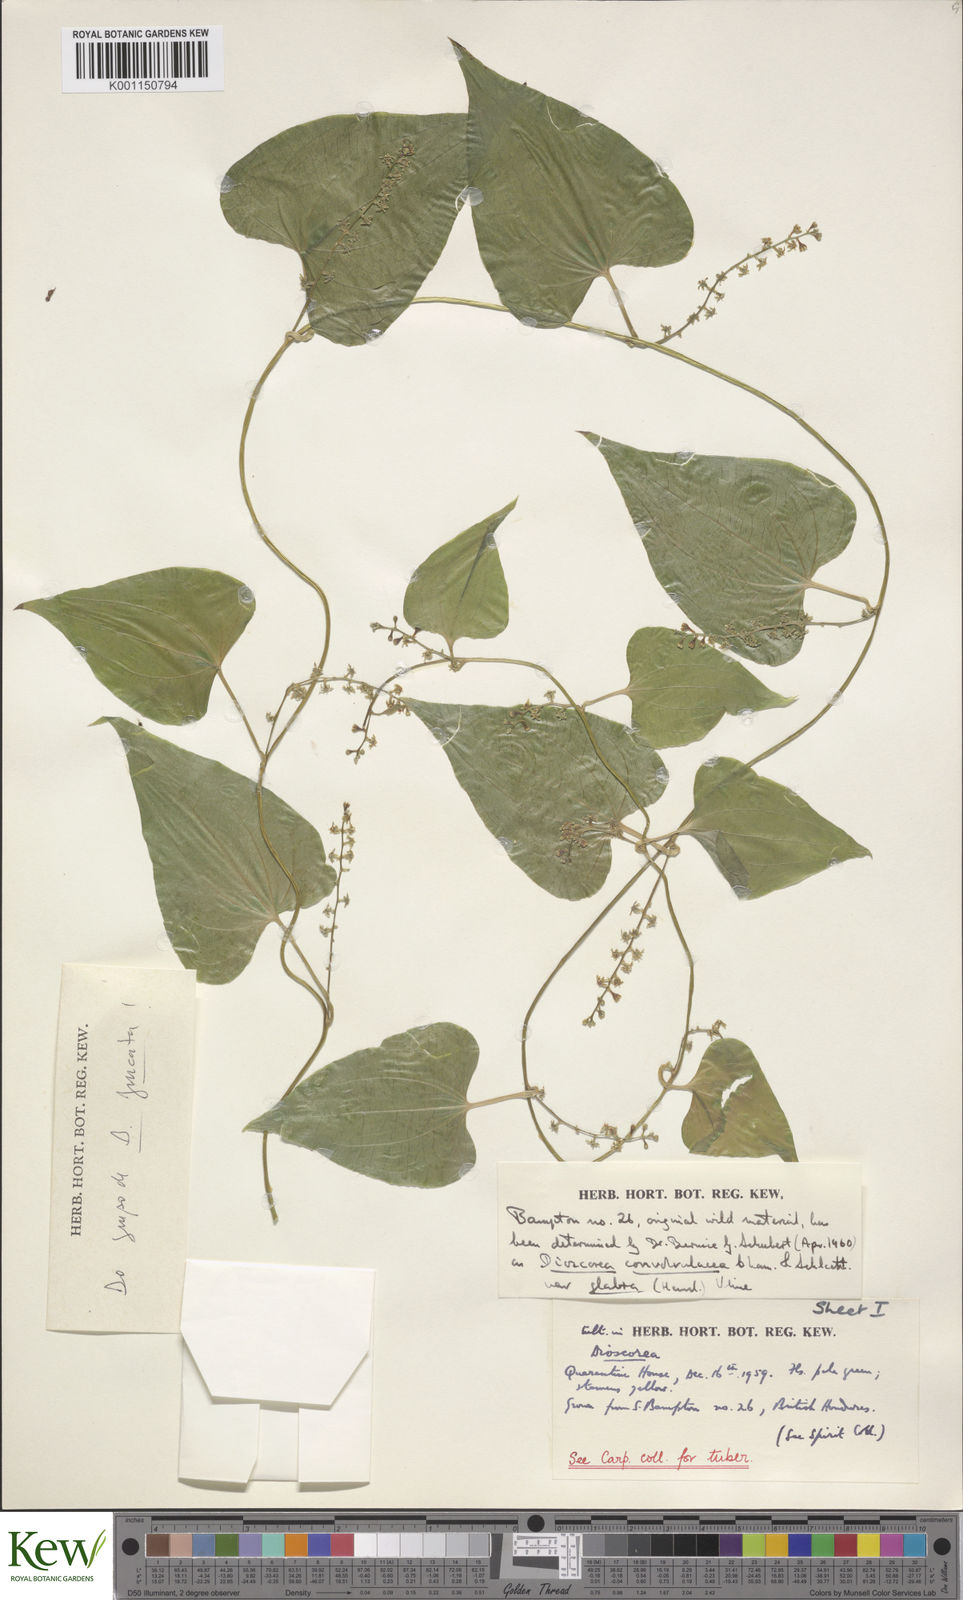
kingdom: Plantae
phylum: Tracheophyta
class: Liliopsida
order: Dioscoreales
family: Dioscoreaceae
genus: Dioscorea
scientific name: Dioscorea convolvulacea
